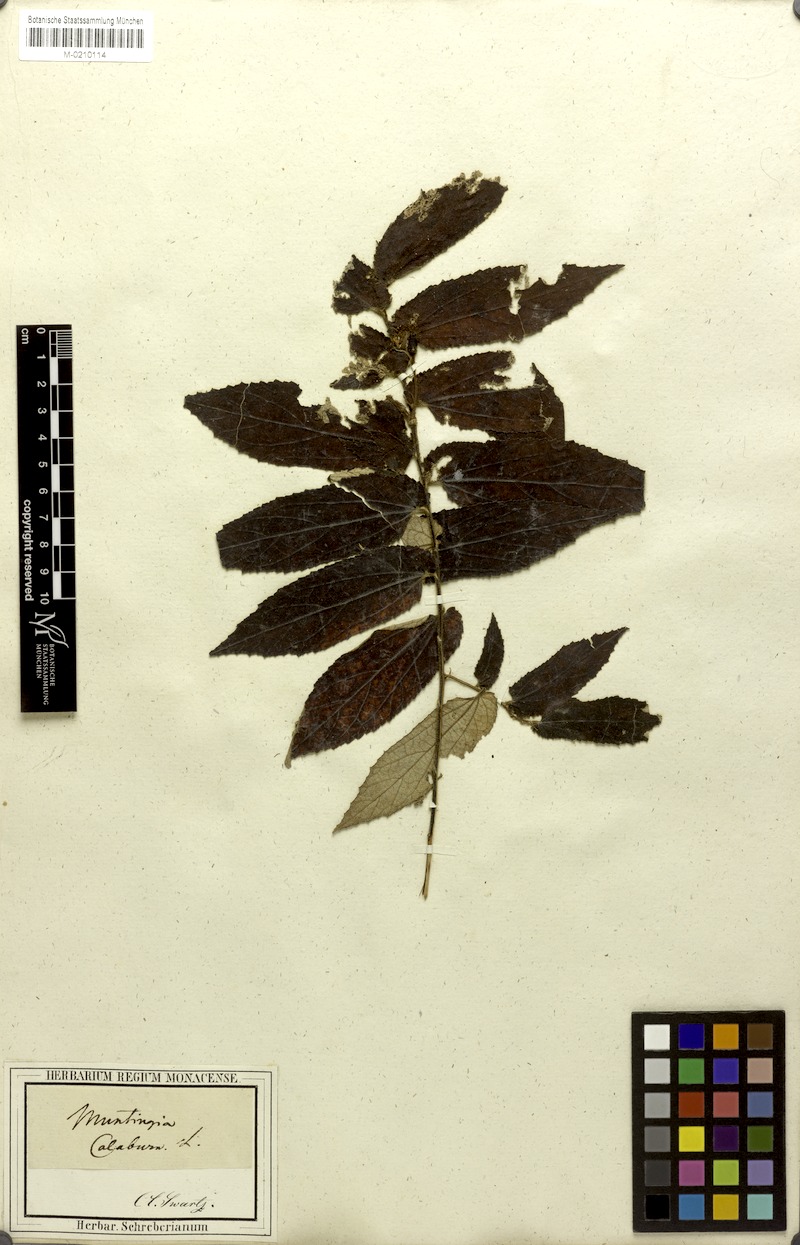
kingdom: Plantae
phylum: Tracheophyta
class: Magnoliopsida
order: Malvales
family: Muntingiaceae
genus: Muntingia
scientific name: Muntingia calabura
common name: Strawberrytree
